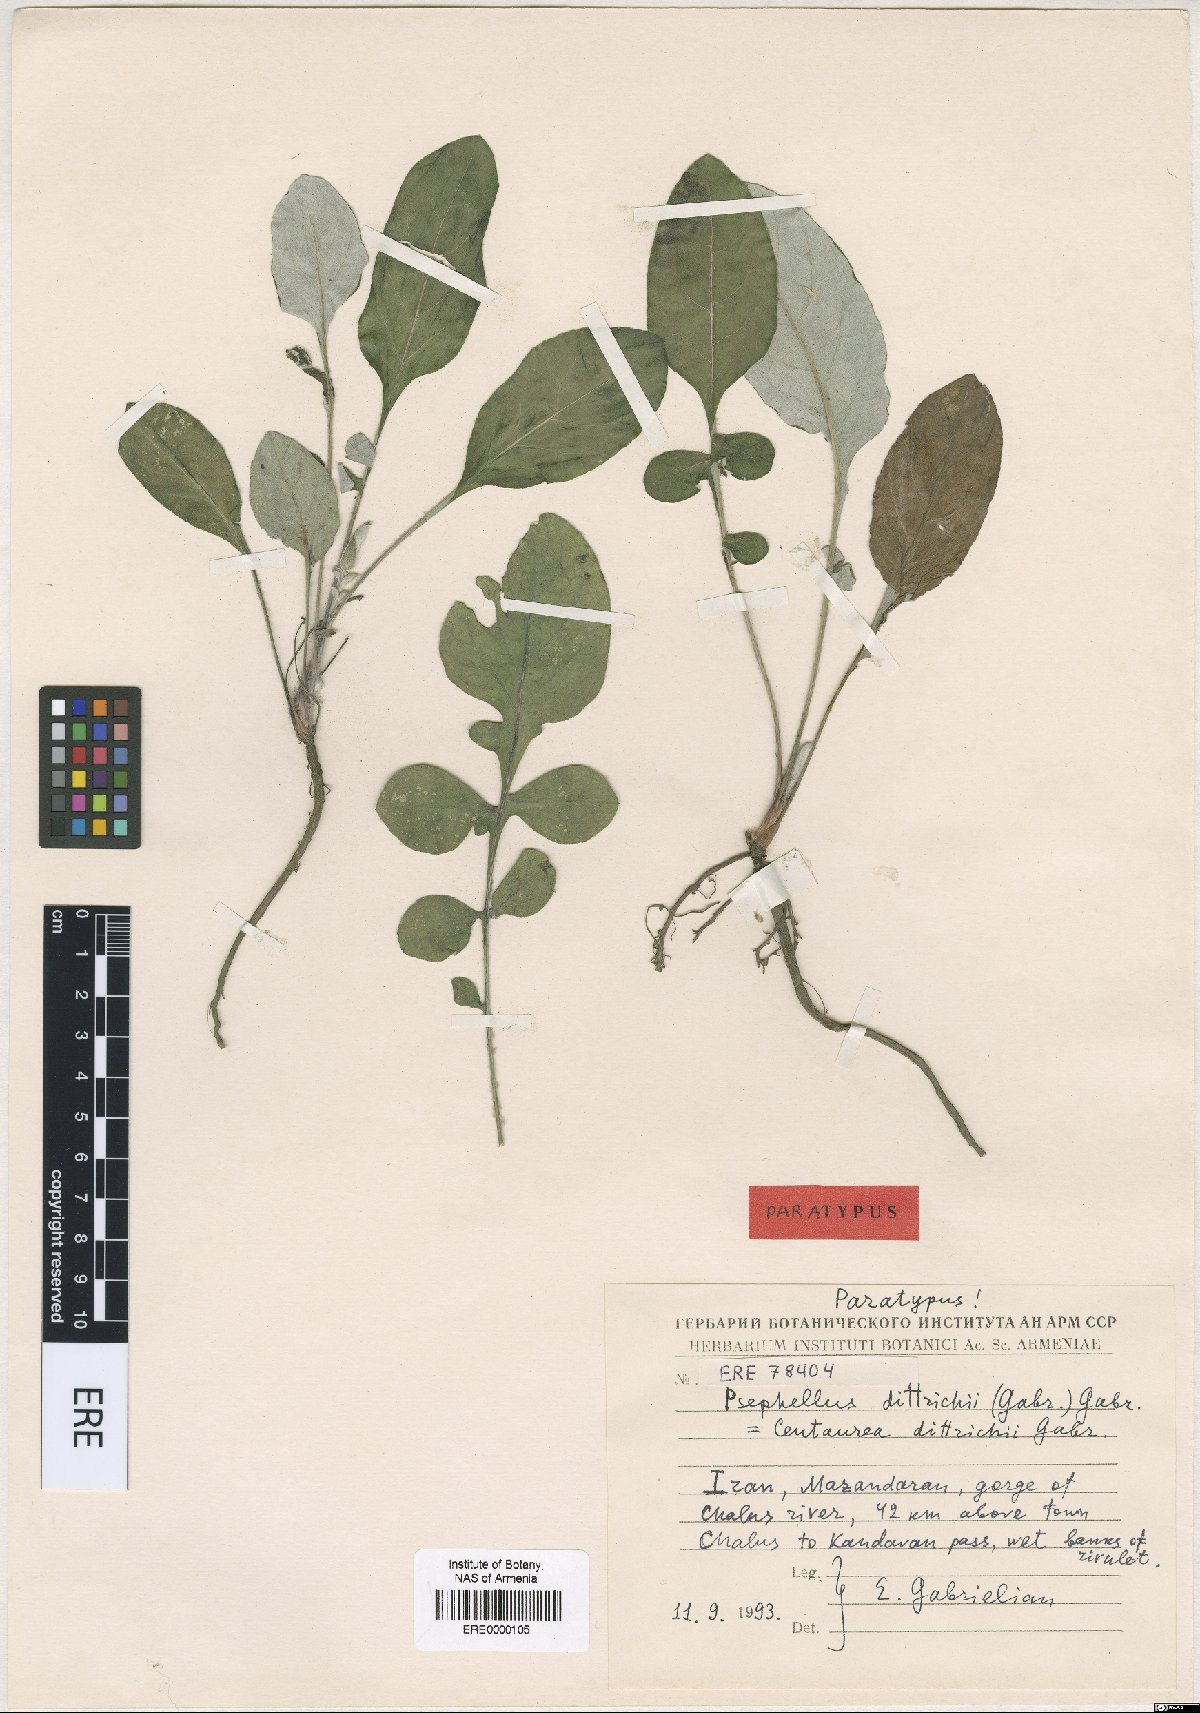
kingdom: Plantae
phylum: Tracheophyta
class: Magnoliopsida
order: Asterales
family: Asteraceae
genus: Psephellus
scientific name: Psephellus dittrichii
